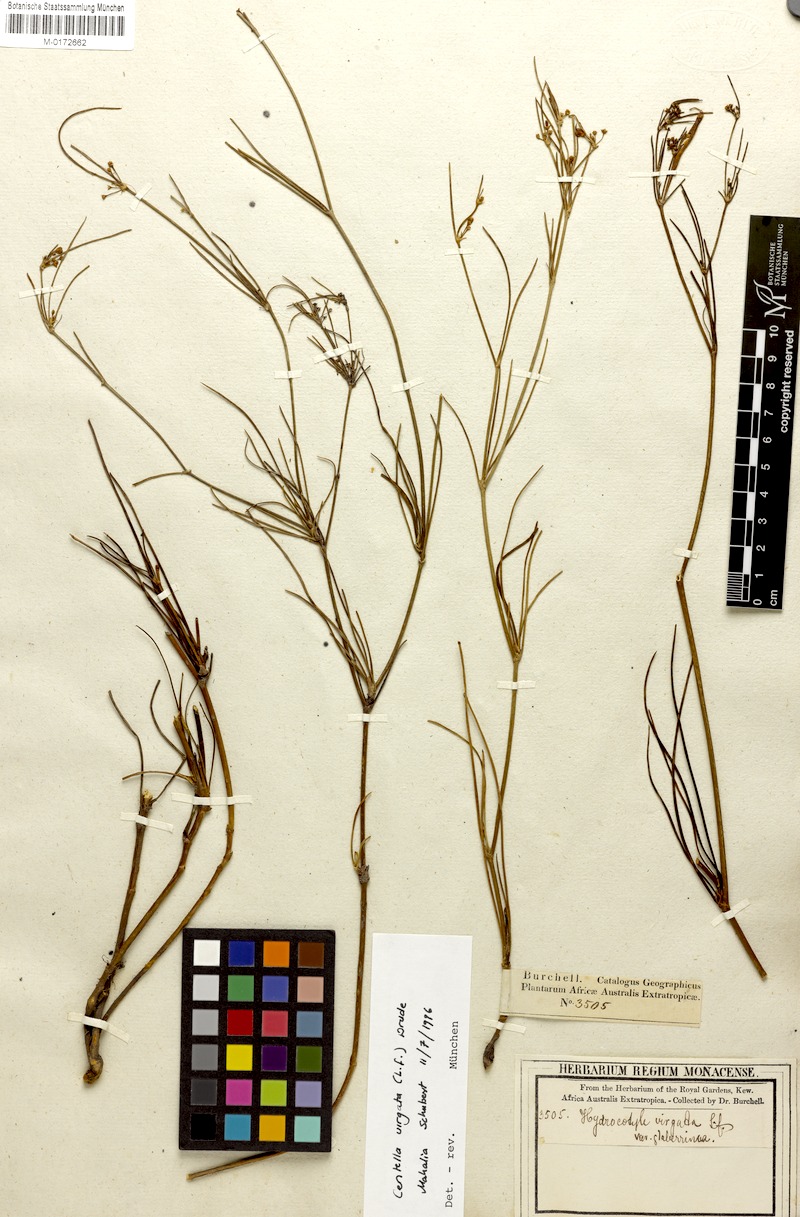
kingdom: Plantae
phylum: Tracheophyta
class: Magnoliopsida
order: Apiales
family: Apiaceae
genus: Centella
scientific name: Centella virgata
